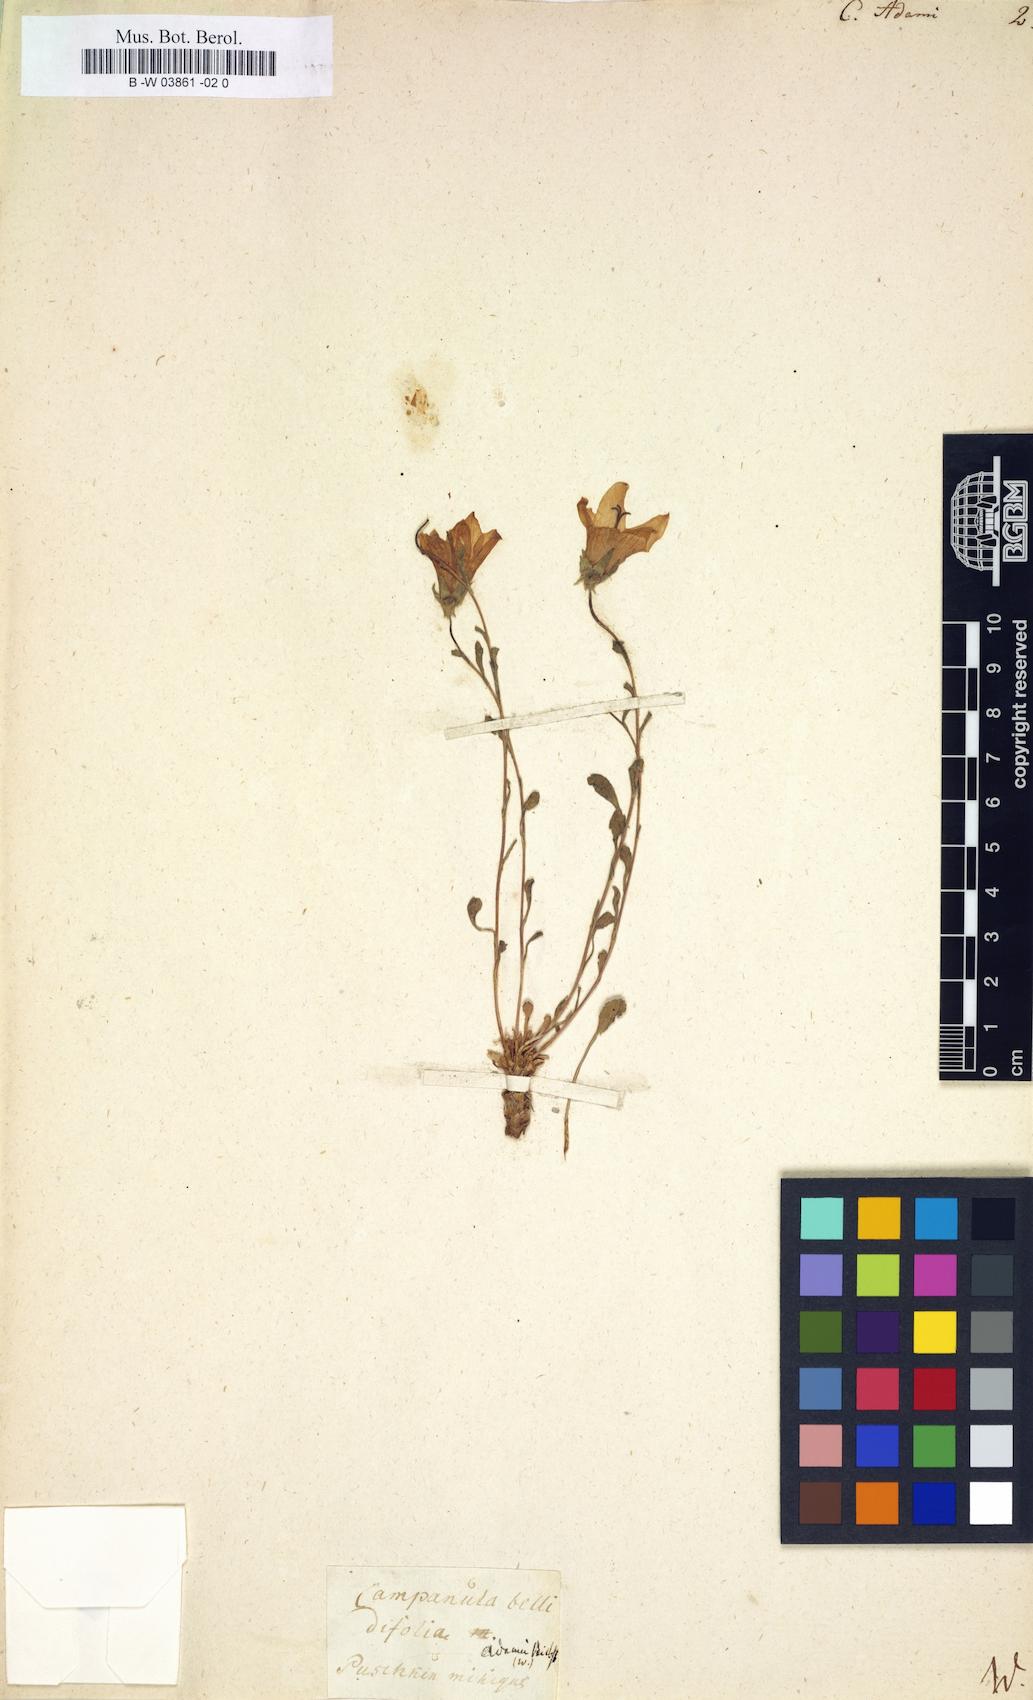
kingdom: Plantae
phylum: Tracheophyta
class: Magnoliopsida
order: Asterales
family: Campanulaceae
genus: Campanula
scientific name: Campanula bellidifolia
